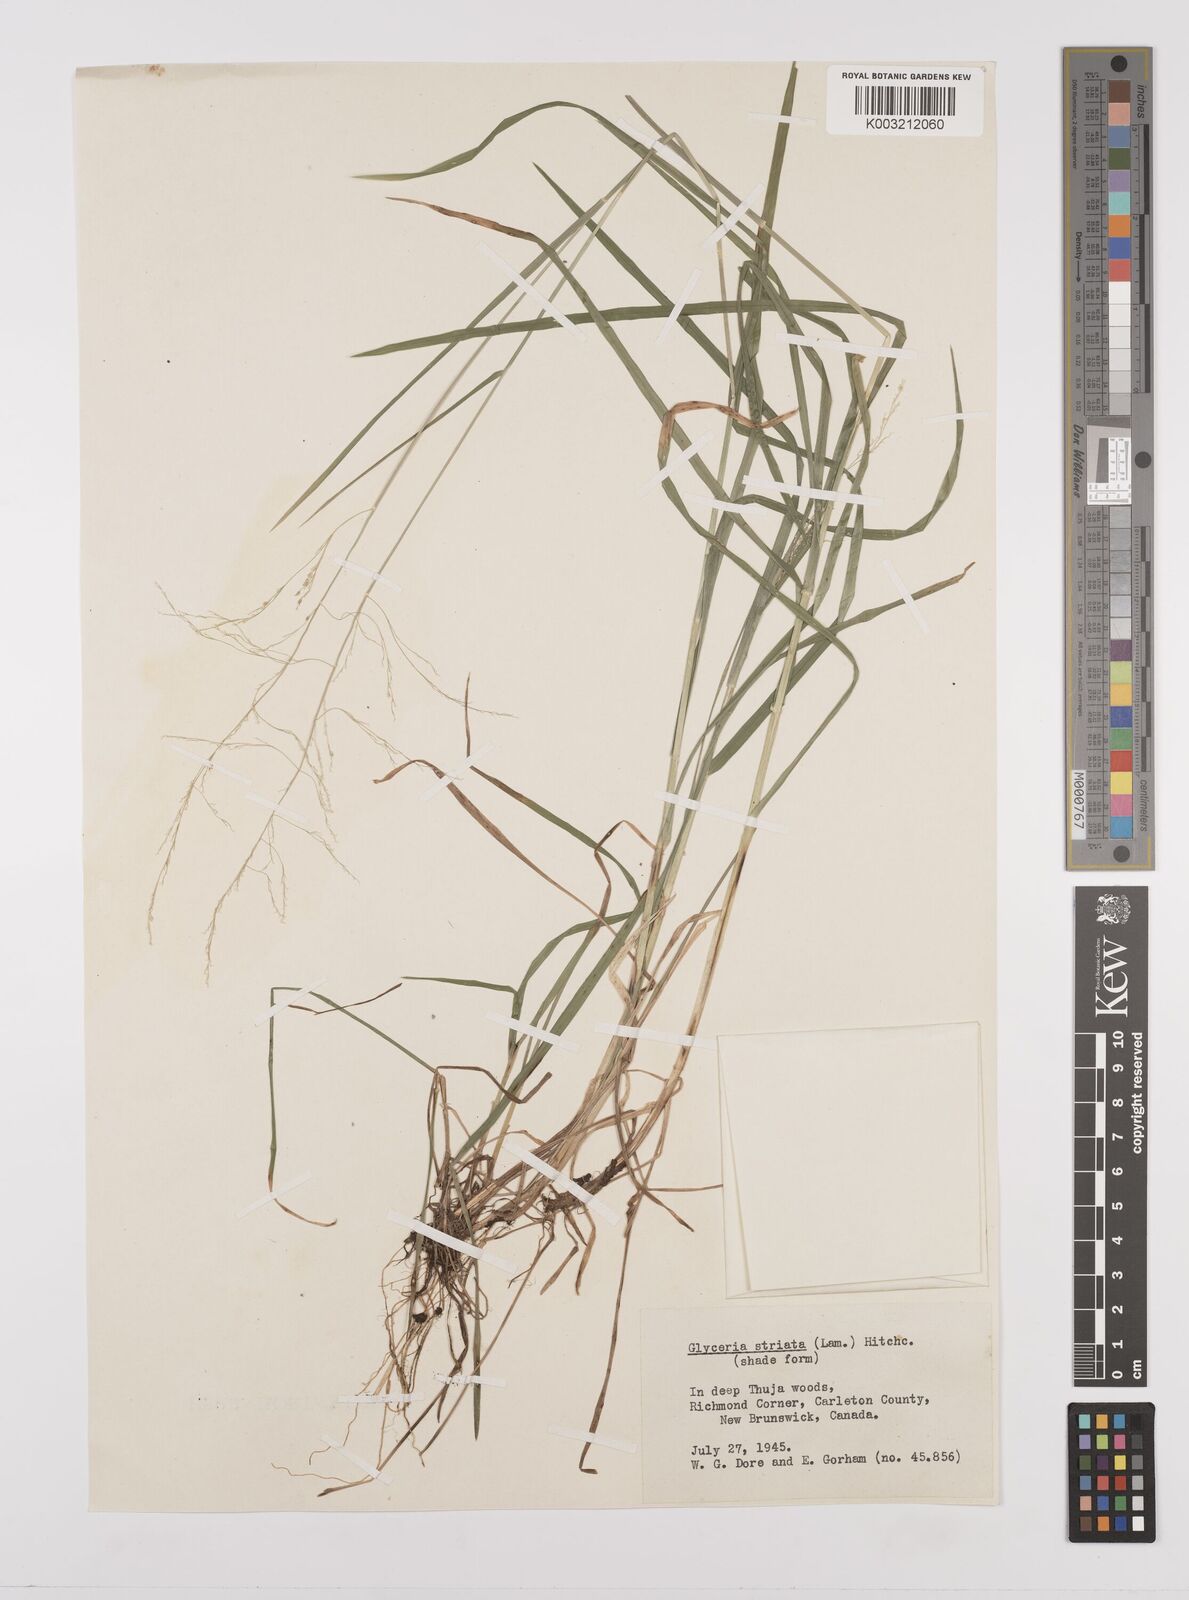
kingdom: Plantae
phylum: Tracheophyta
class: Liliopsida
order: Poales
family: Poaceae
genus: Glyceria
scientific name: Glyceria striata
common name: Fowl manna grass
